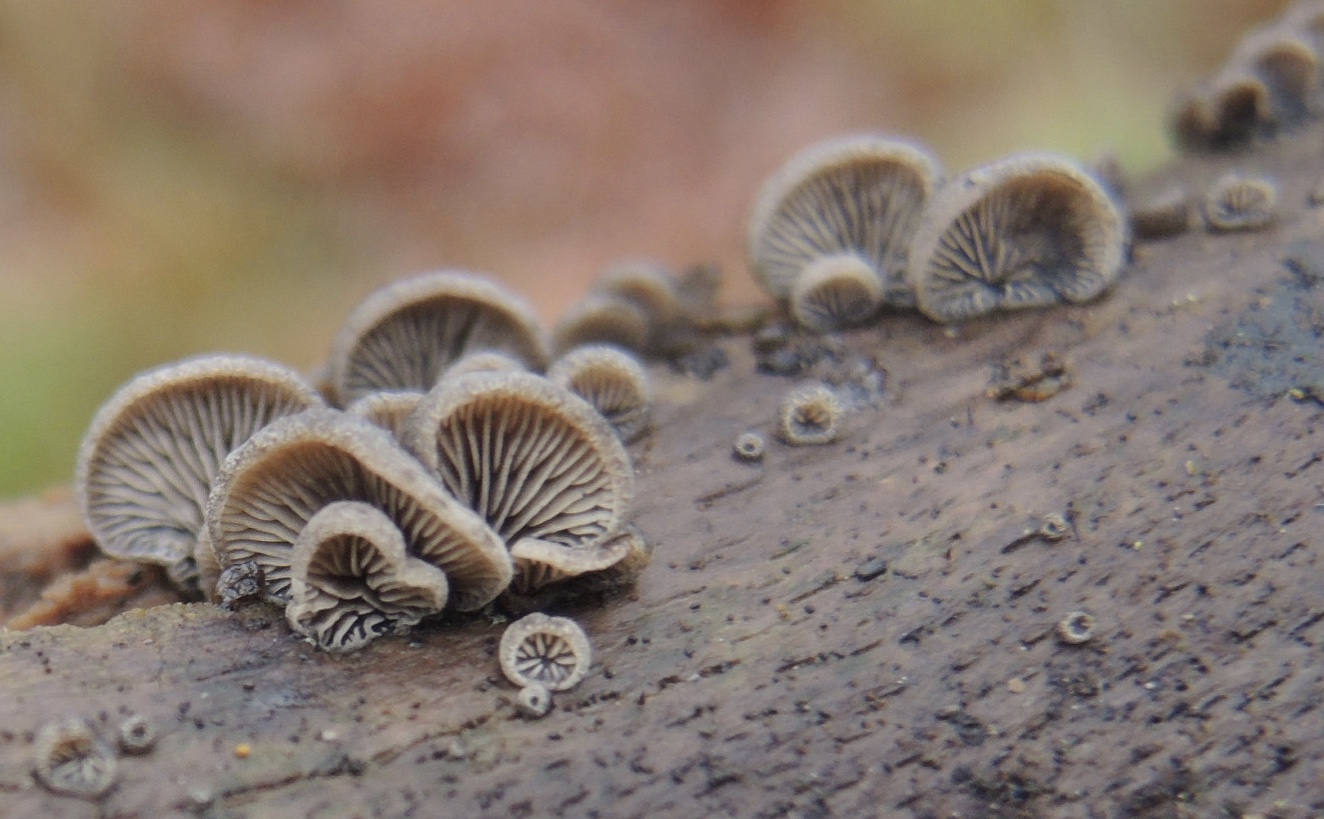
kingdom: Fungi
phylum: Basidiomycota
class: Agaricomycetes
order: Agaricales
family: Pleurotaceae
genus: Resupinatus
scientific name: Resupinatus trichotis
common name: mørkfiltet barkhat
